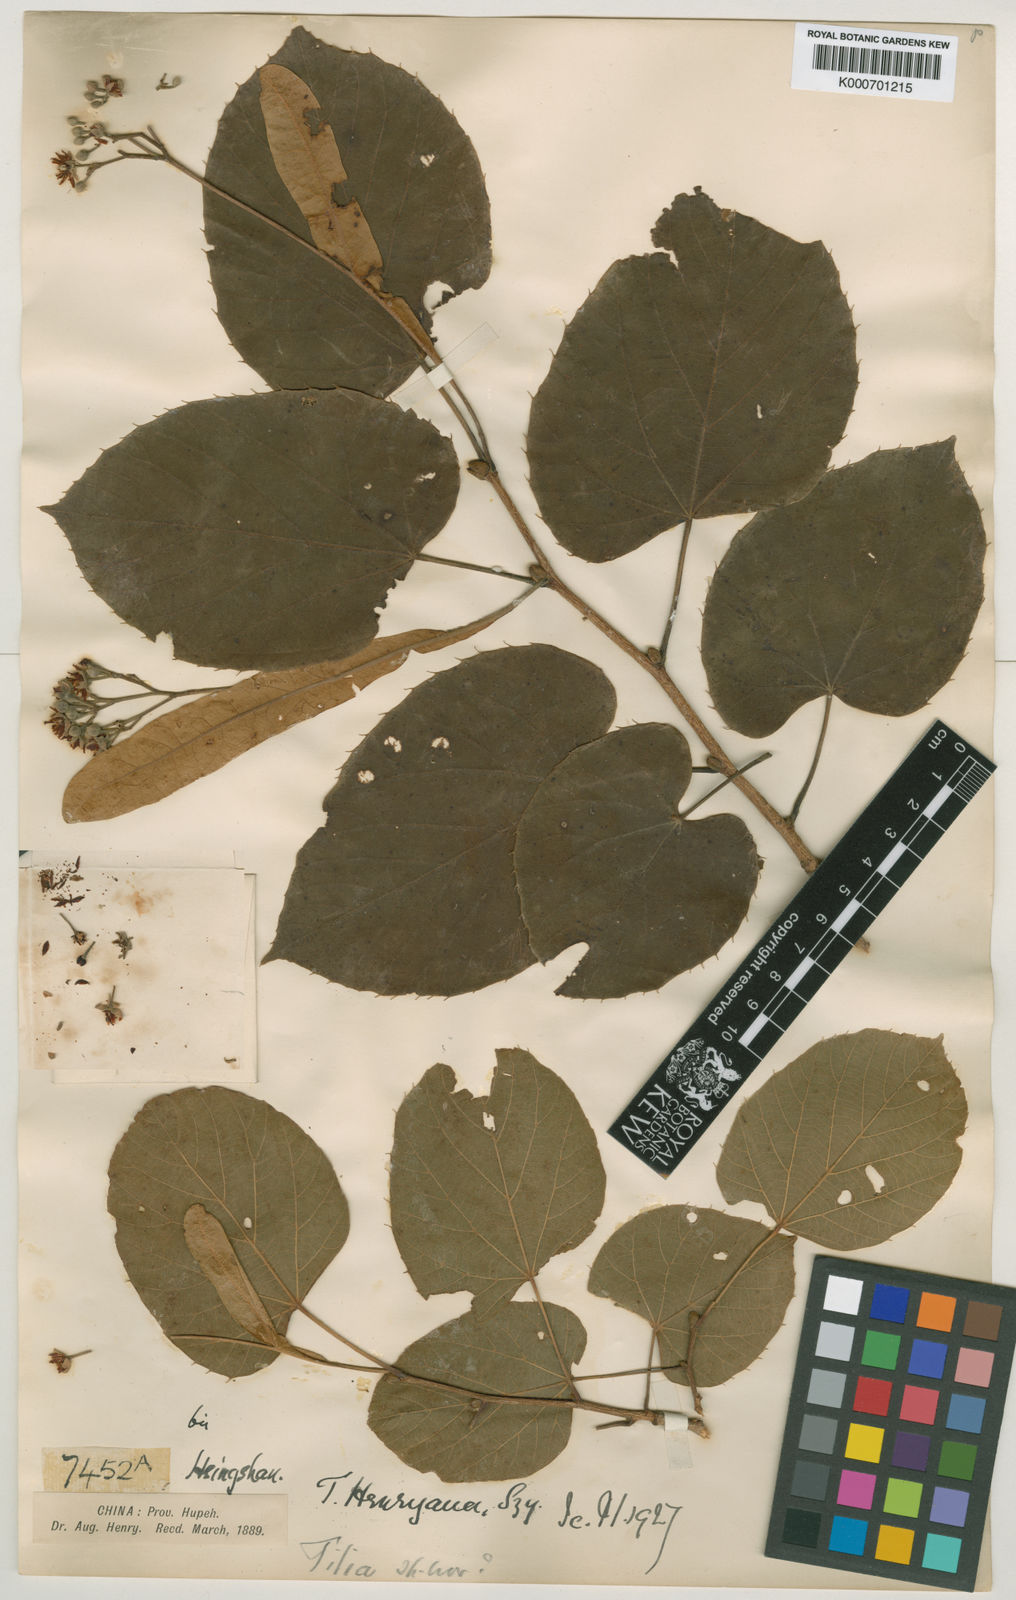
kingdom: Plantae
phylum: Tracheophyta
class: Magnoliopsida
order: Malvales
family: Malvaceae
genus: Tilia
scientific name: Tilia henryana
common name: Henry's lime
